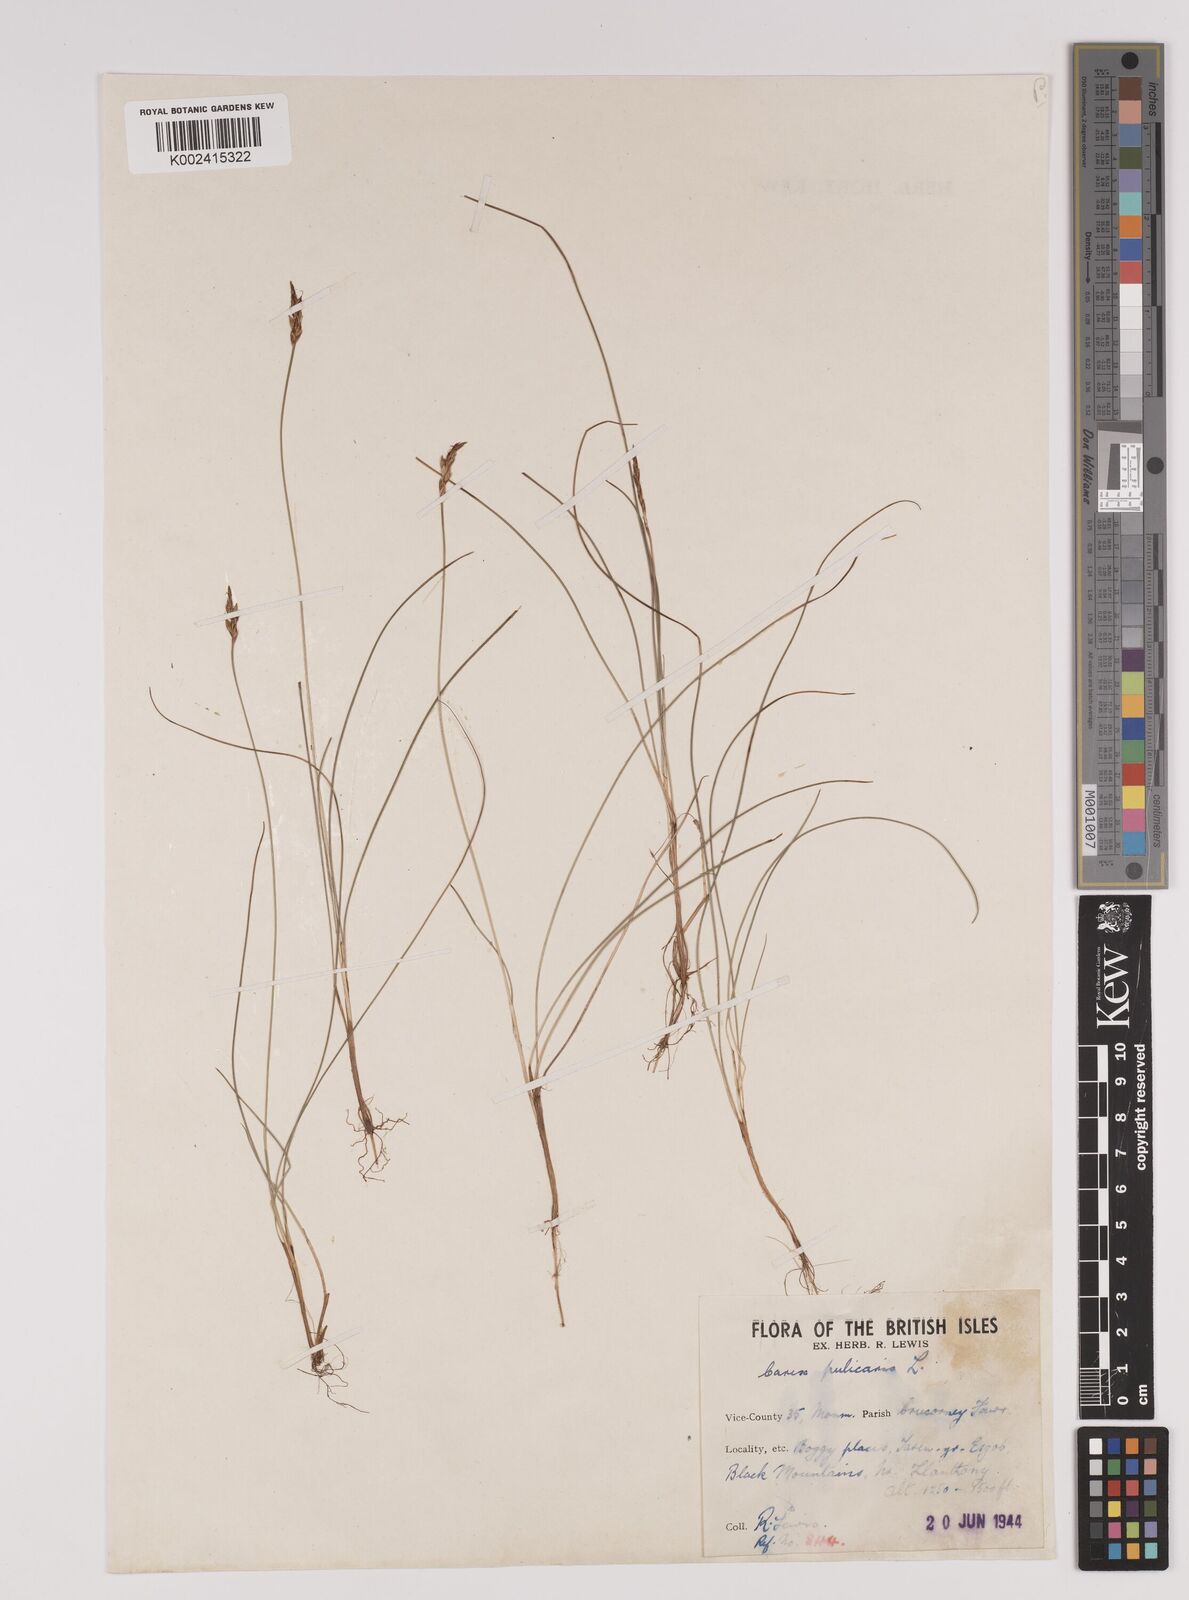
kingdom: Plantae
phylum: Tracheophyta
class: Liliopsida
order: Poales
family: Cyperaceae
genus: Carex
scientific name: Carex pulicaris
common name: Flea sedge
